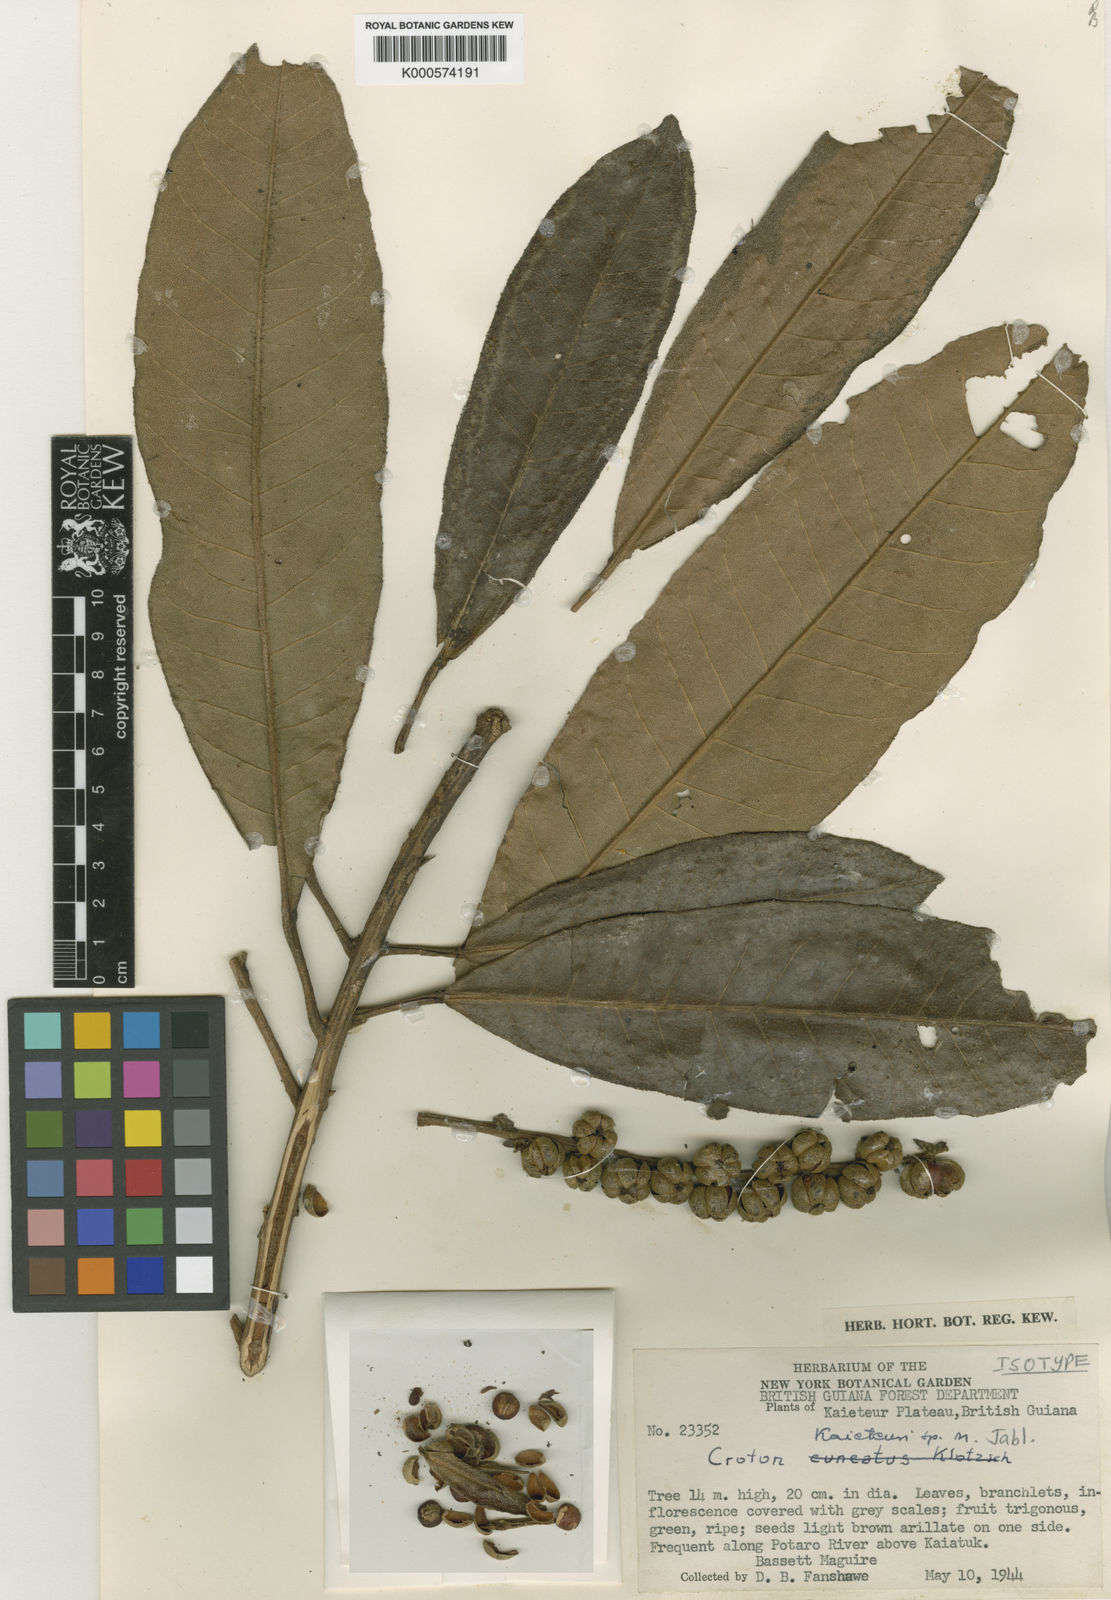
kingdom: Plantae
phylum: Tracheophyta
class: Magnoliopsida
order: Malpighiales
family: Euphorbiaceae
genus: Croton
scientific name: Croton cuneatus
